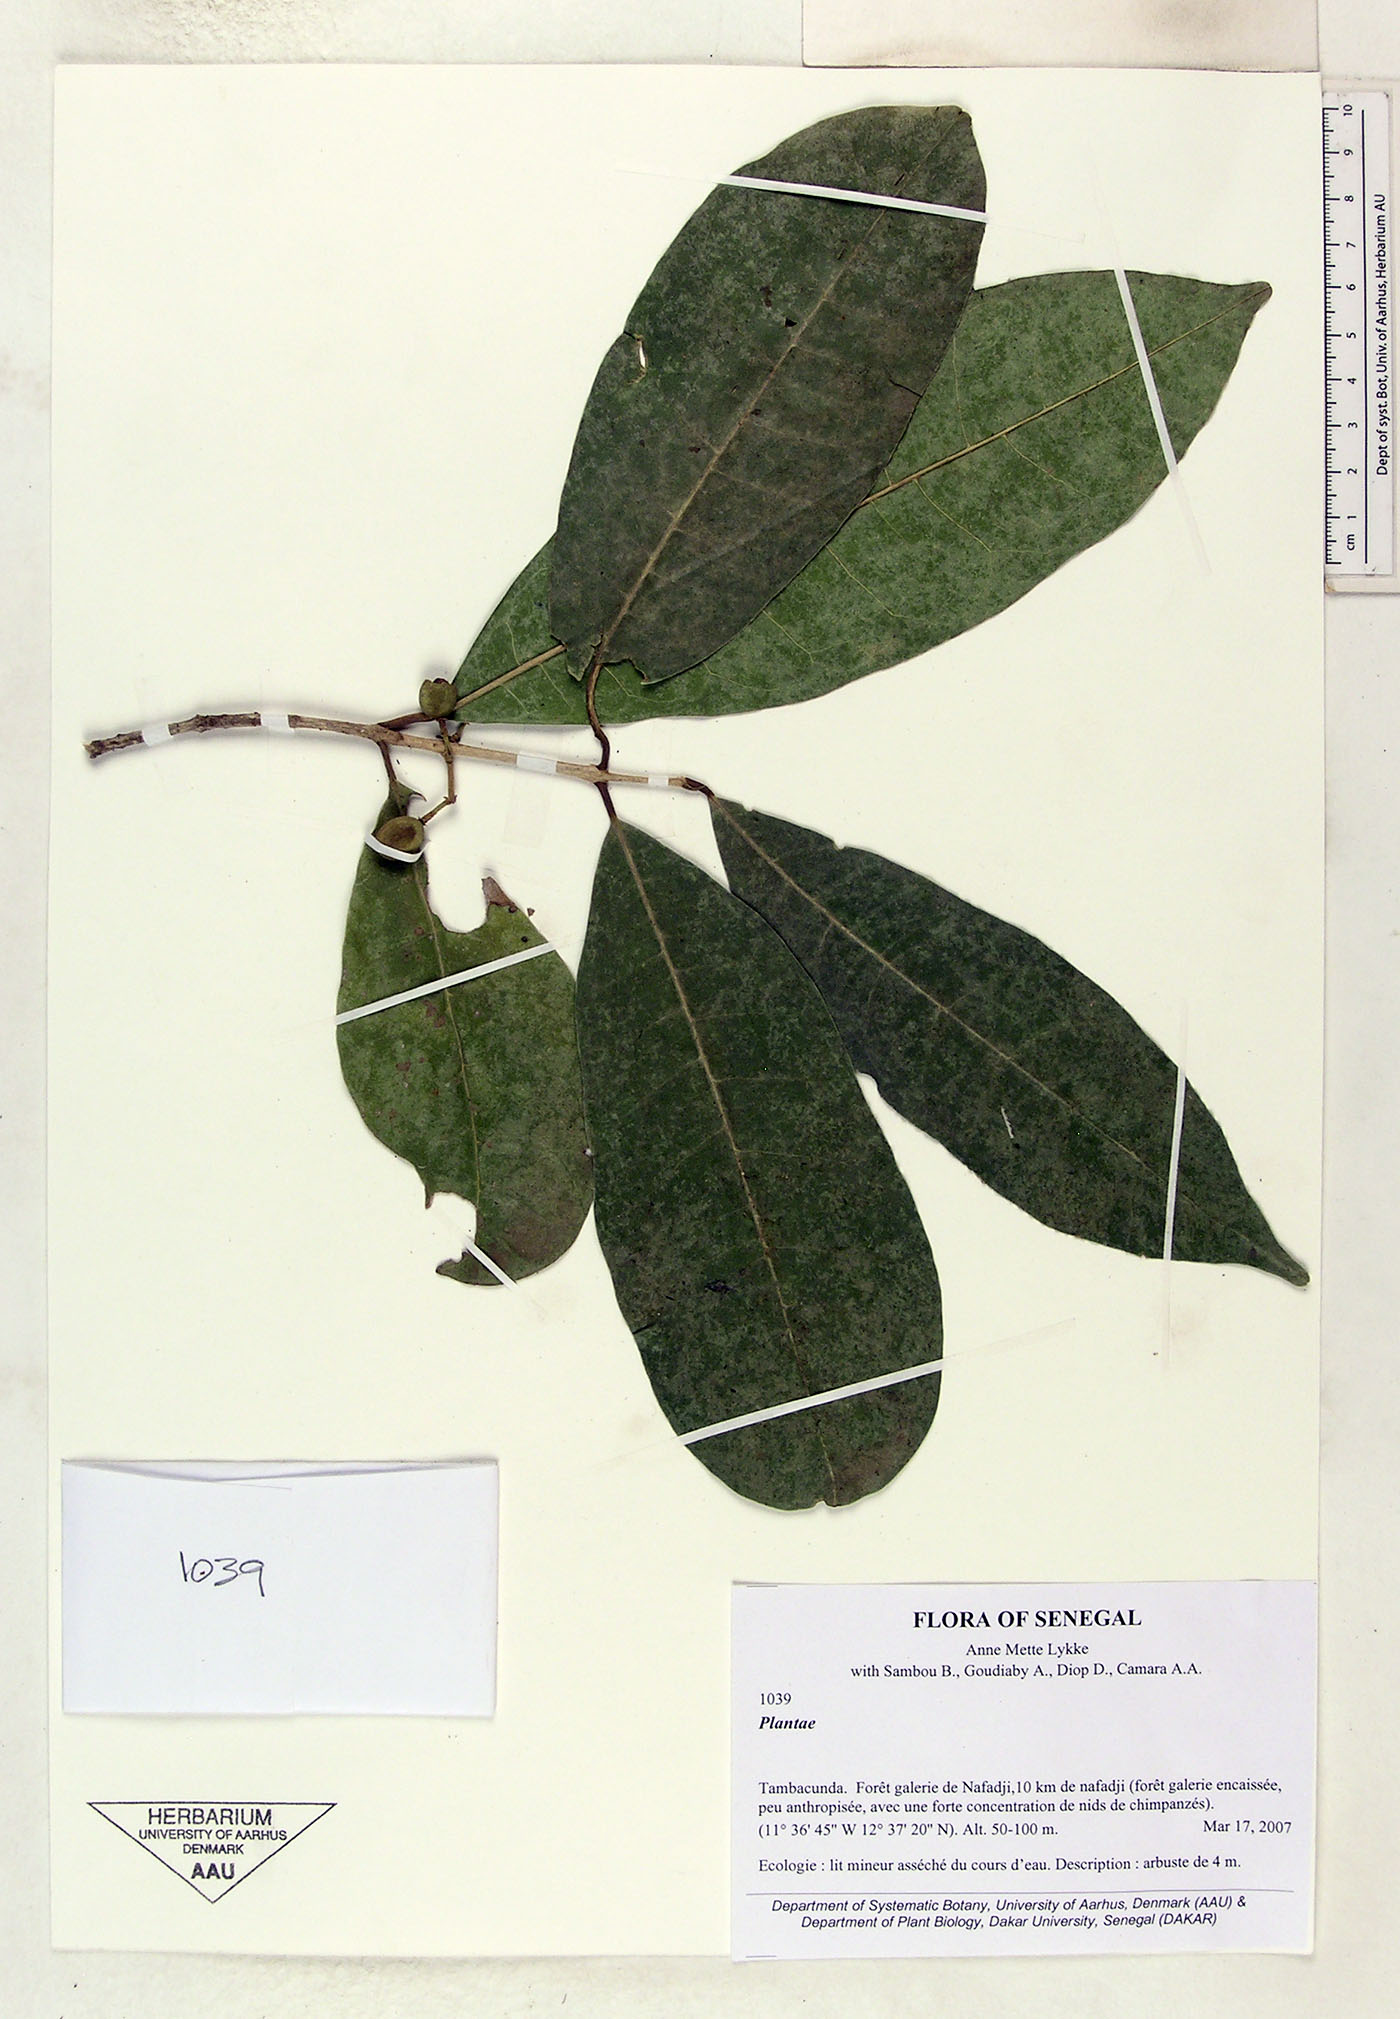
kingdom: Plantae
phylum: Tracheophyta
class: Magnoliopsida
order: Lamiales
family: Oleaceae
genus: Noronhia
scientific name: Noronhia nilotica
